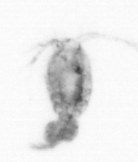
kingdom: Animalia
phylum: Arthropoda
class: Copepoda
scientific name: Copepoda
